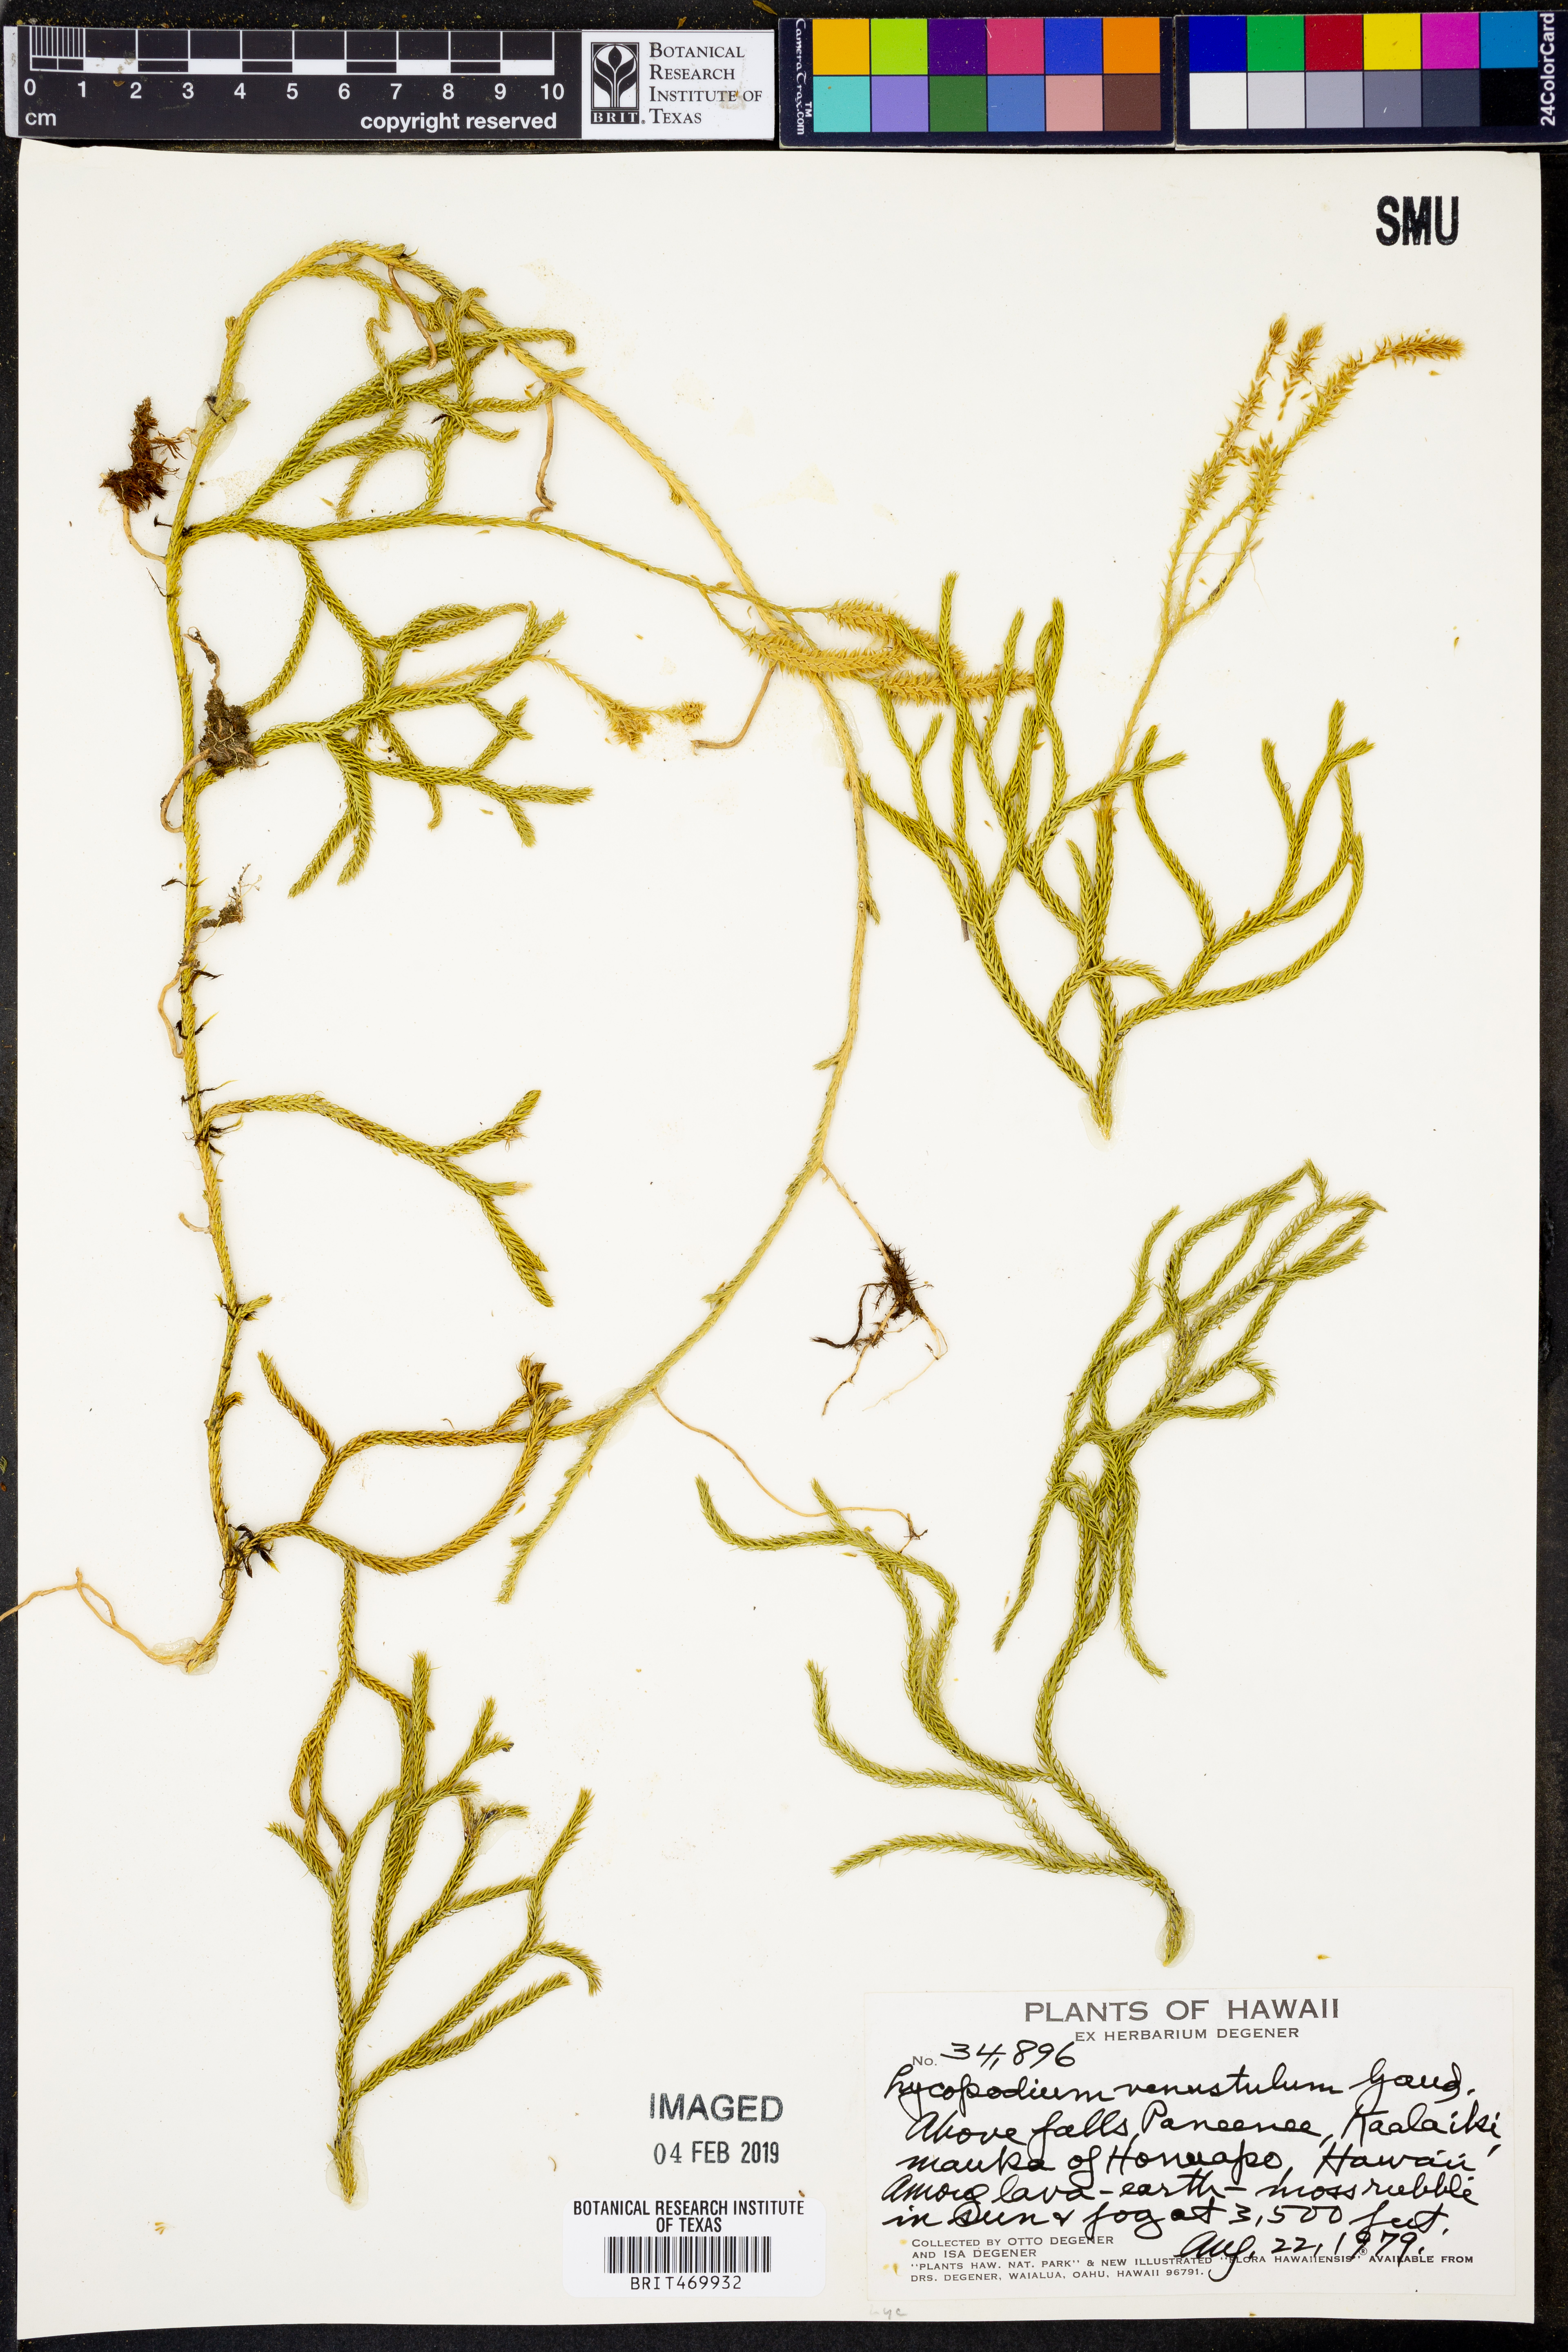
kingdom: Plantae
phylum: Tracheophyta
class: Lycopodiopsida
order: Lycopodiales
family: Lycopodiaceae
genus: Lycopodium
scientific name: Lycopodium venustulum
